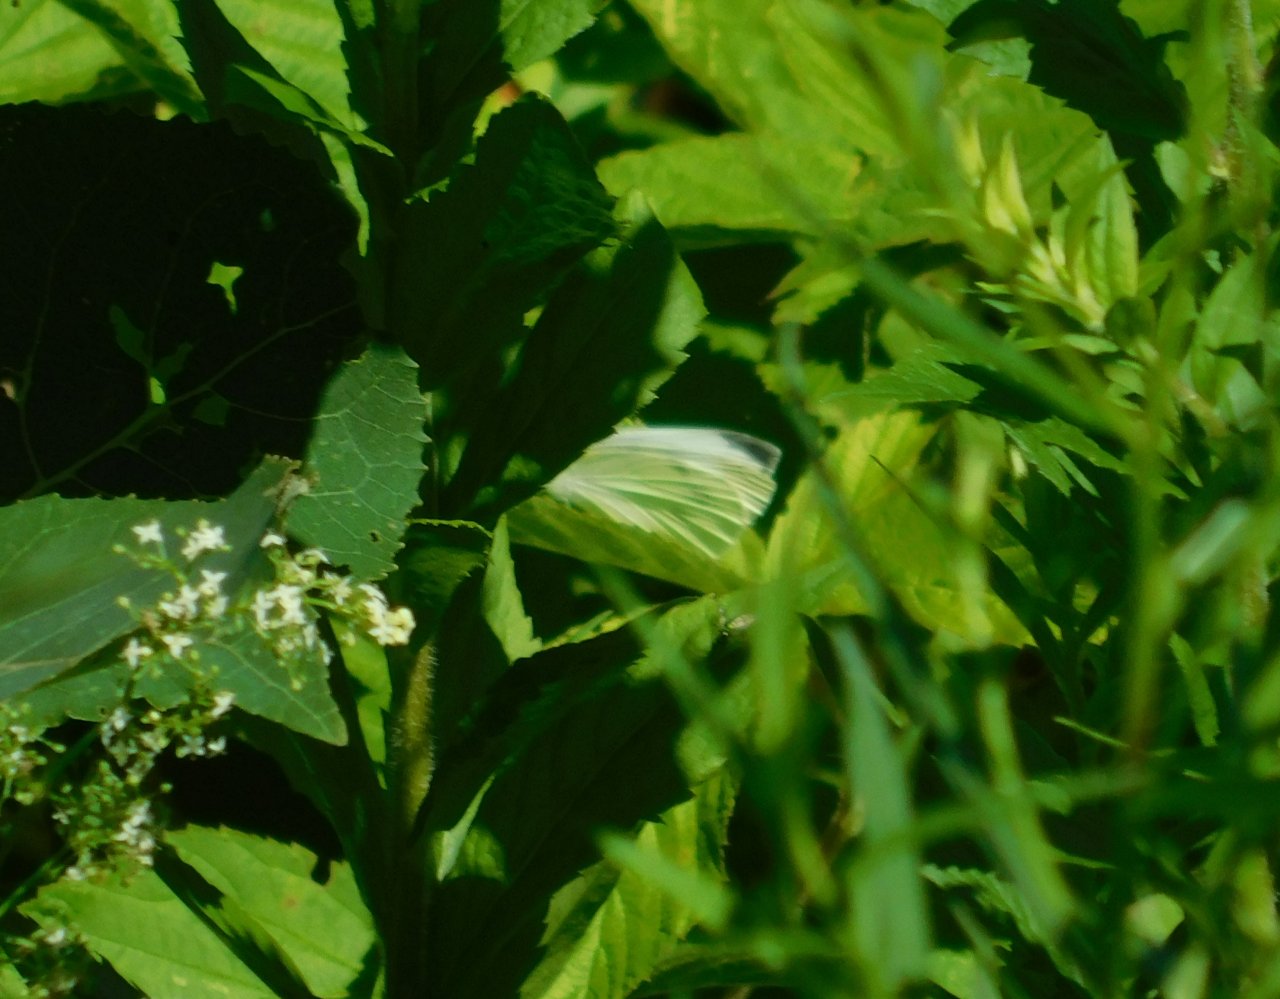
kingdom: Animalia
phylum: Arthropoda
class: Insecta
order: Lepidoptera
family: Pieridae
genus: Pieris
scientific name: Pieris rapae
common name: Cabbage White
